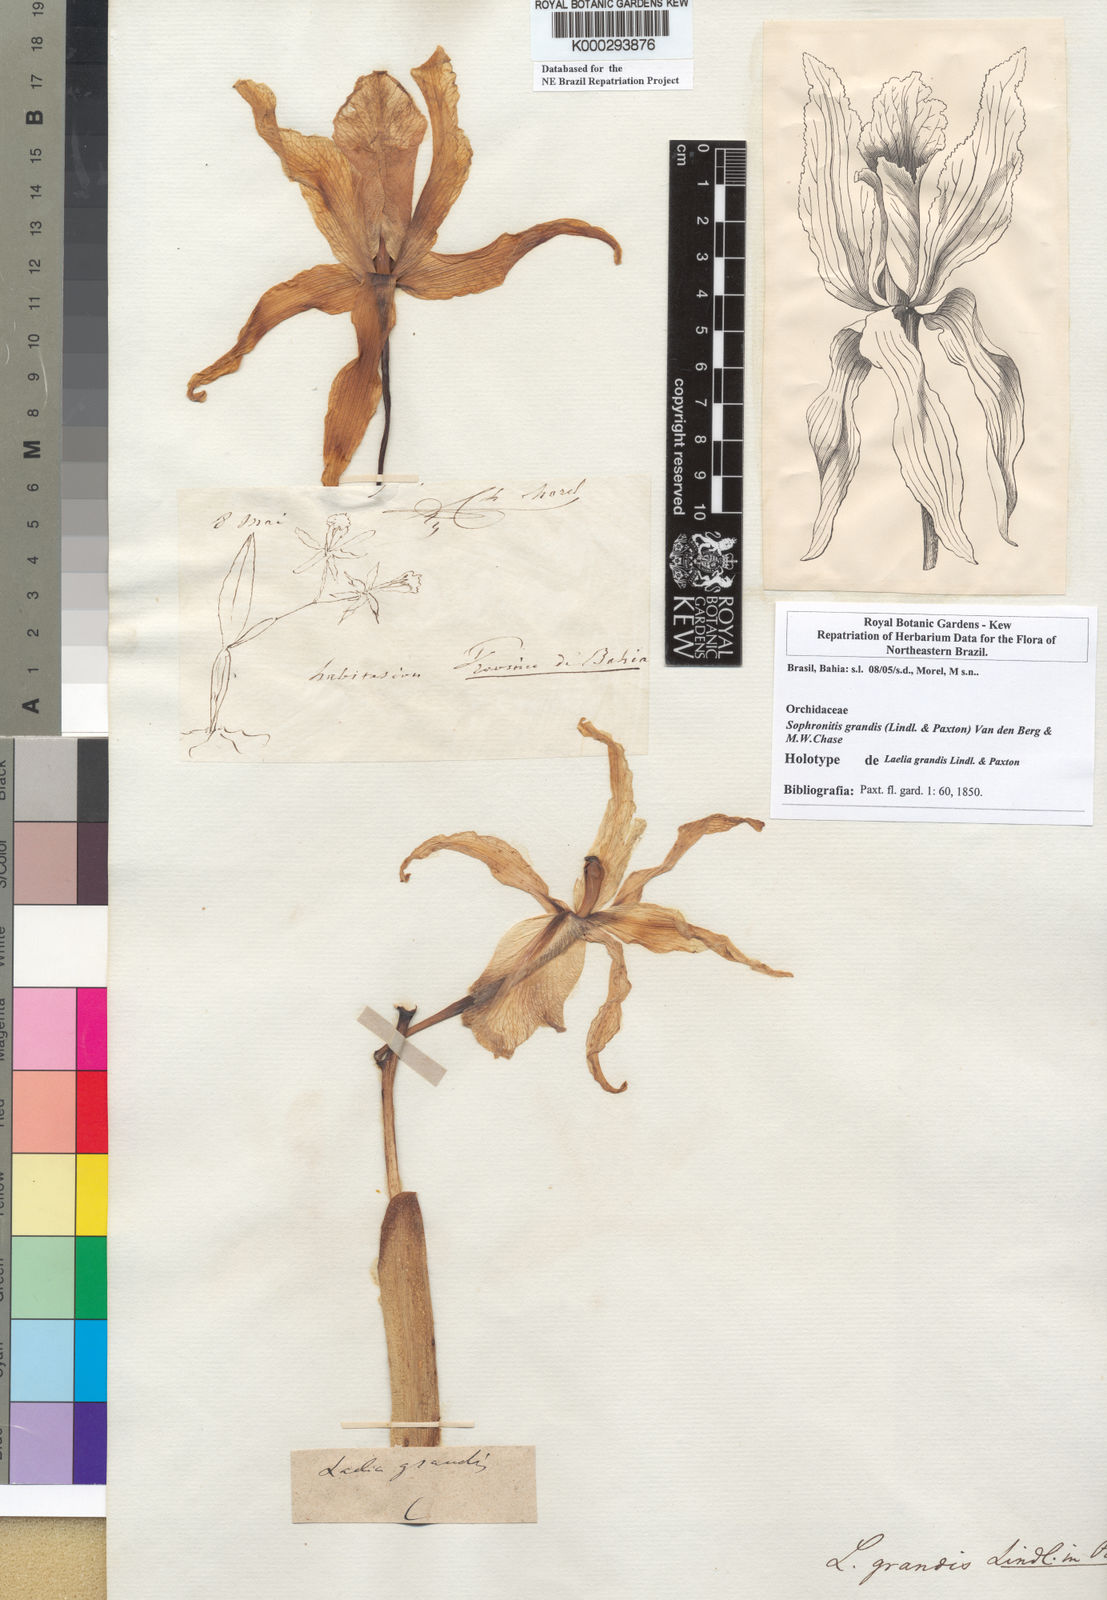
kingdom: Plantae
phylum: Tracheophyta
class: Liliopsida
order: Asparagales
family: Orchidaceae
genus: Cattleya
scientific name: Cattleya grandis
